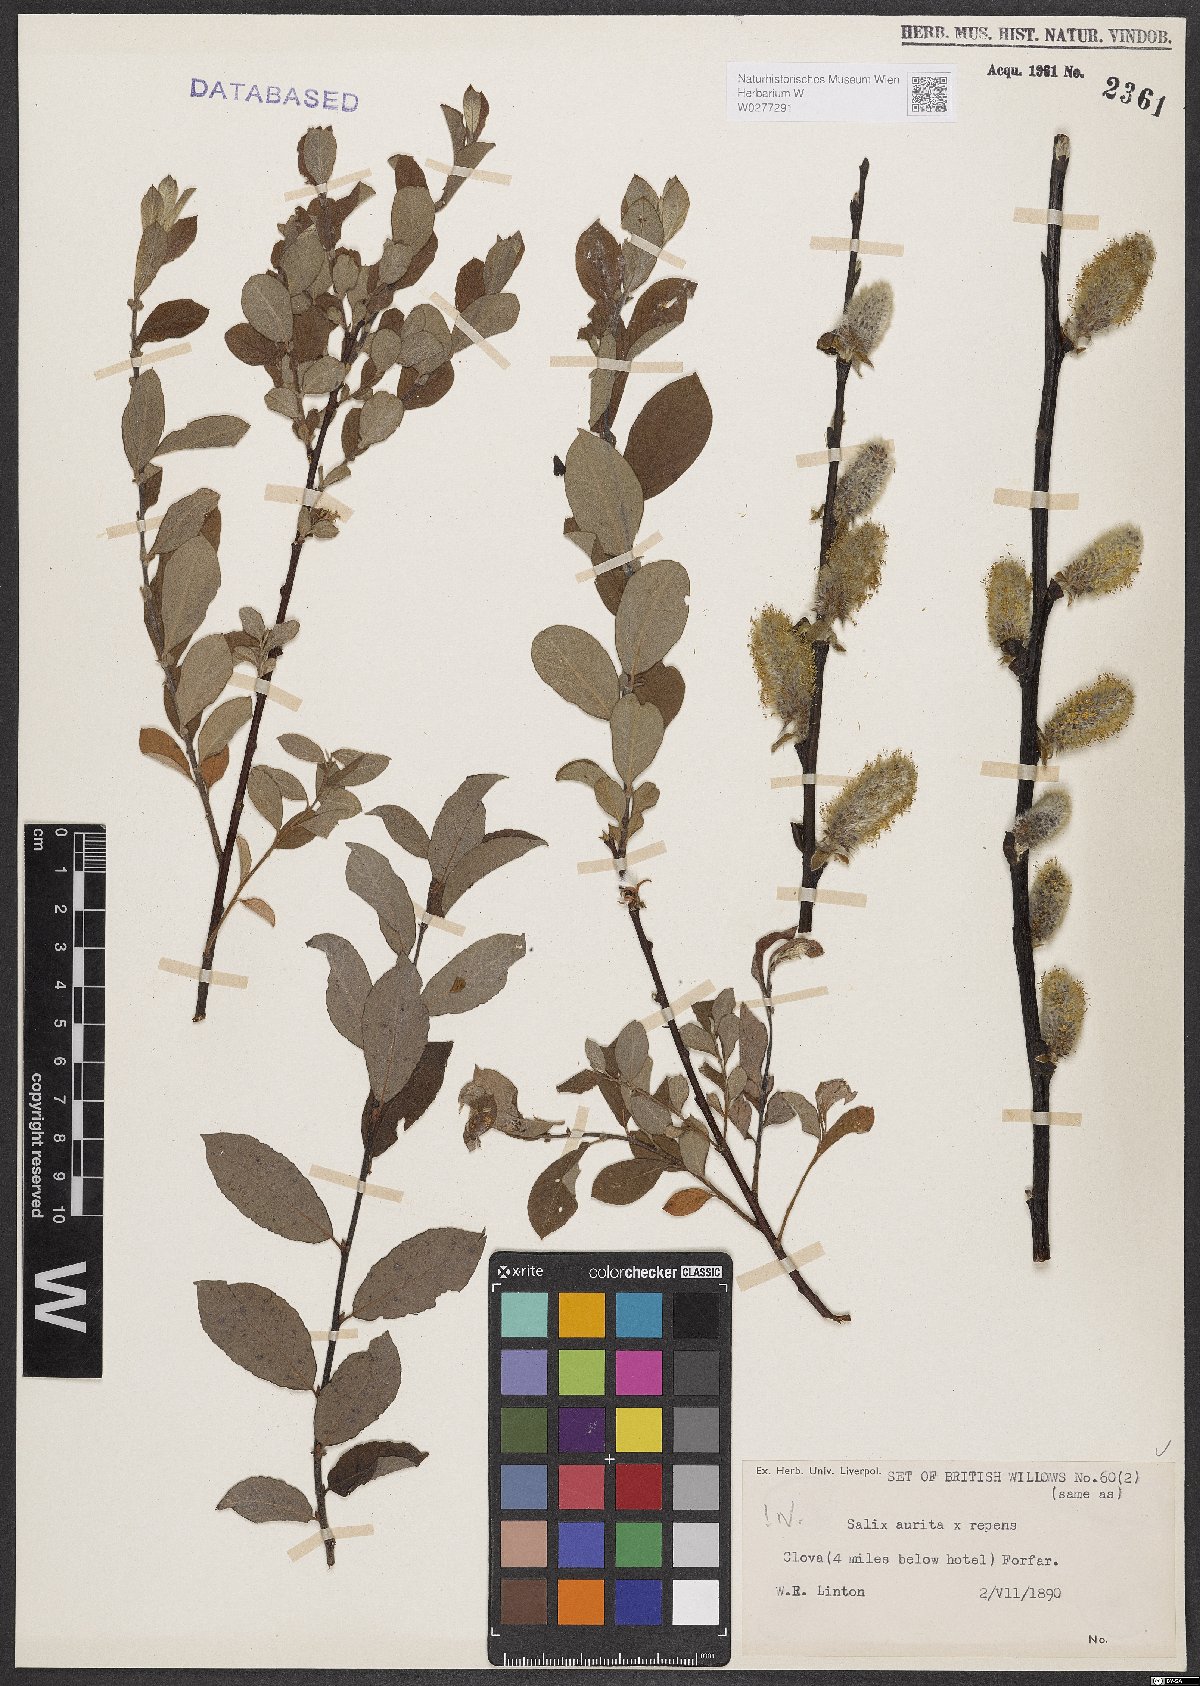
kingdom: Plantae
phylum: Tracheophyta
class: Magnoliopsida
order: Malpighiales
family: Salicaceae
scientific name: Salicaceae
